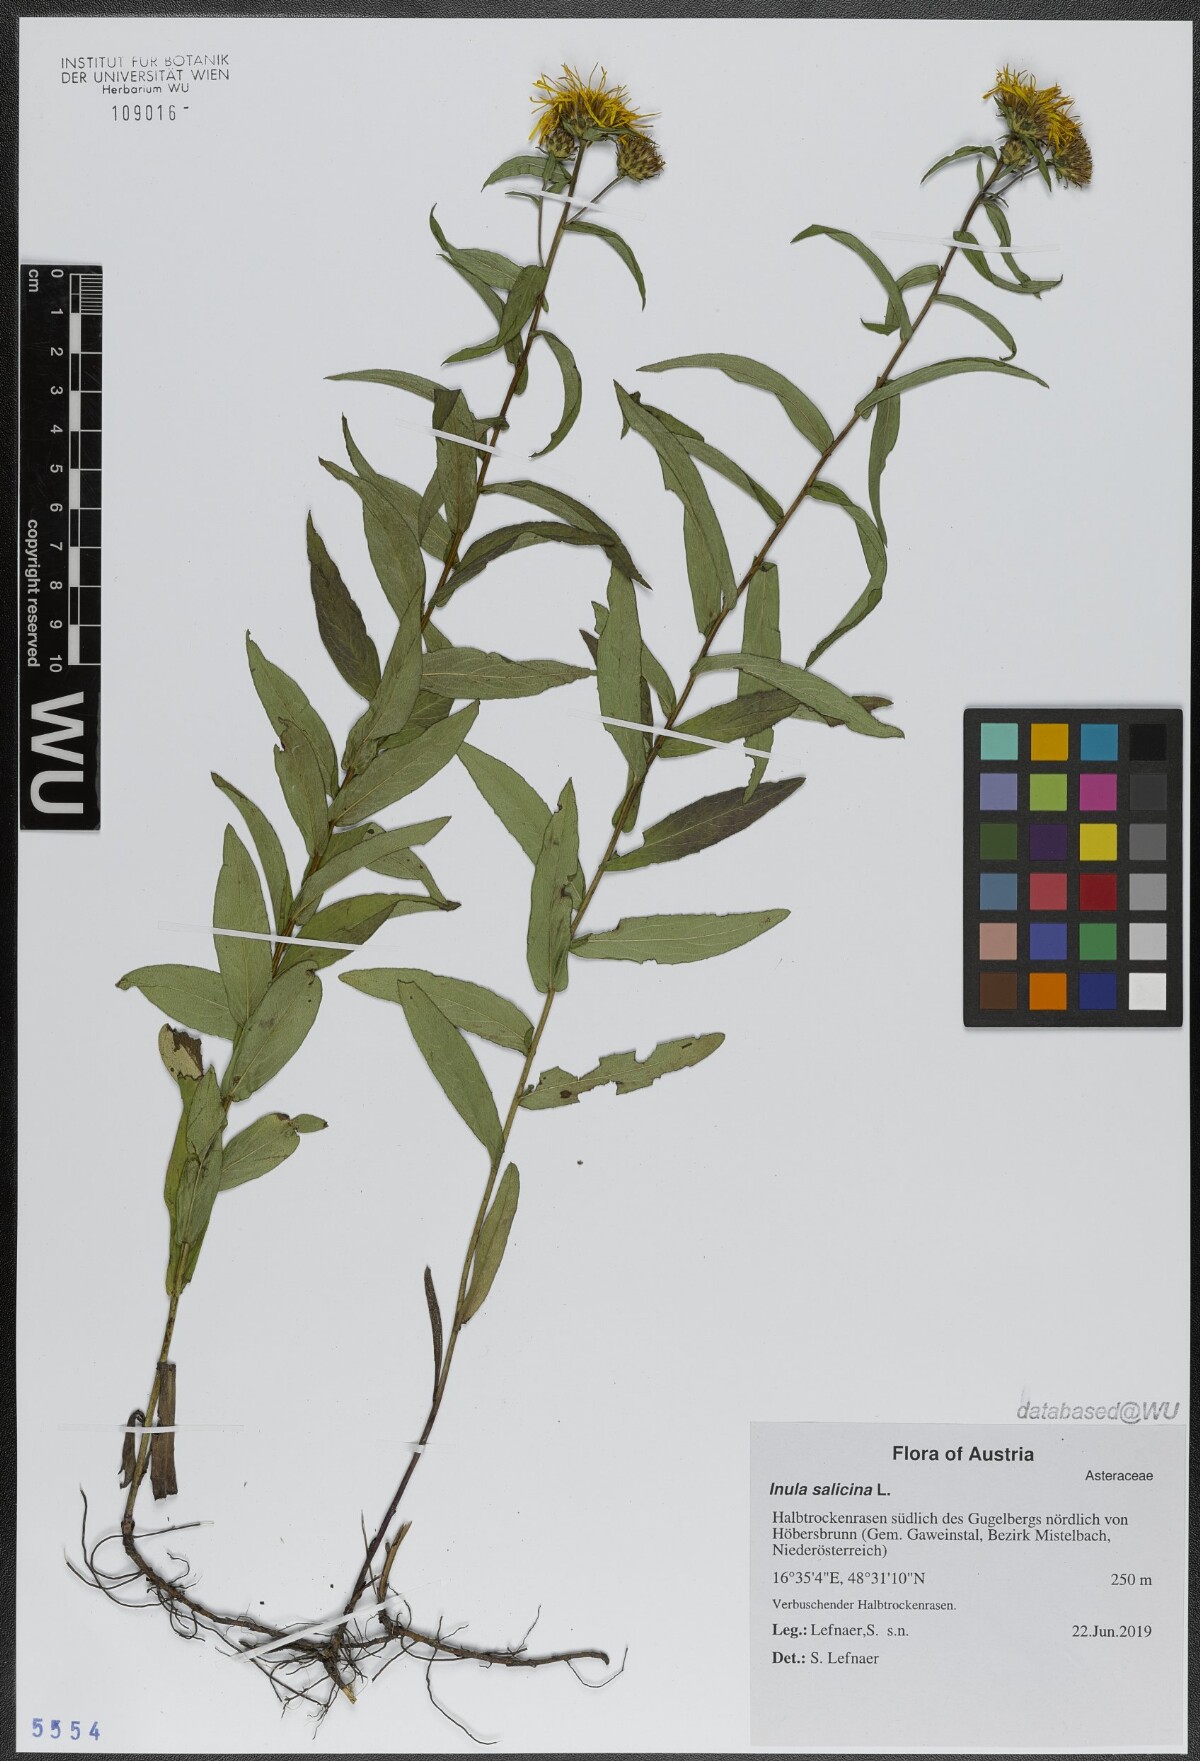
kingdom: Plantae
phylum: Tracheophyta
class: Magnoliopsida
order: Asterales
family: Asteraceae
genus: Pentanema
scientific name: Pentanema salicinum
